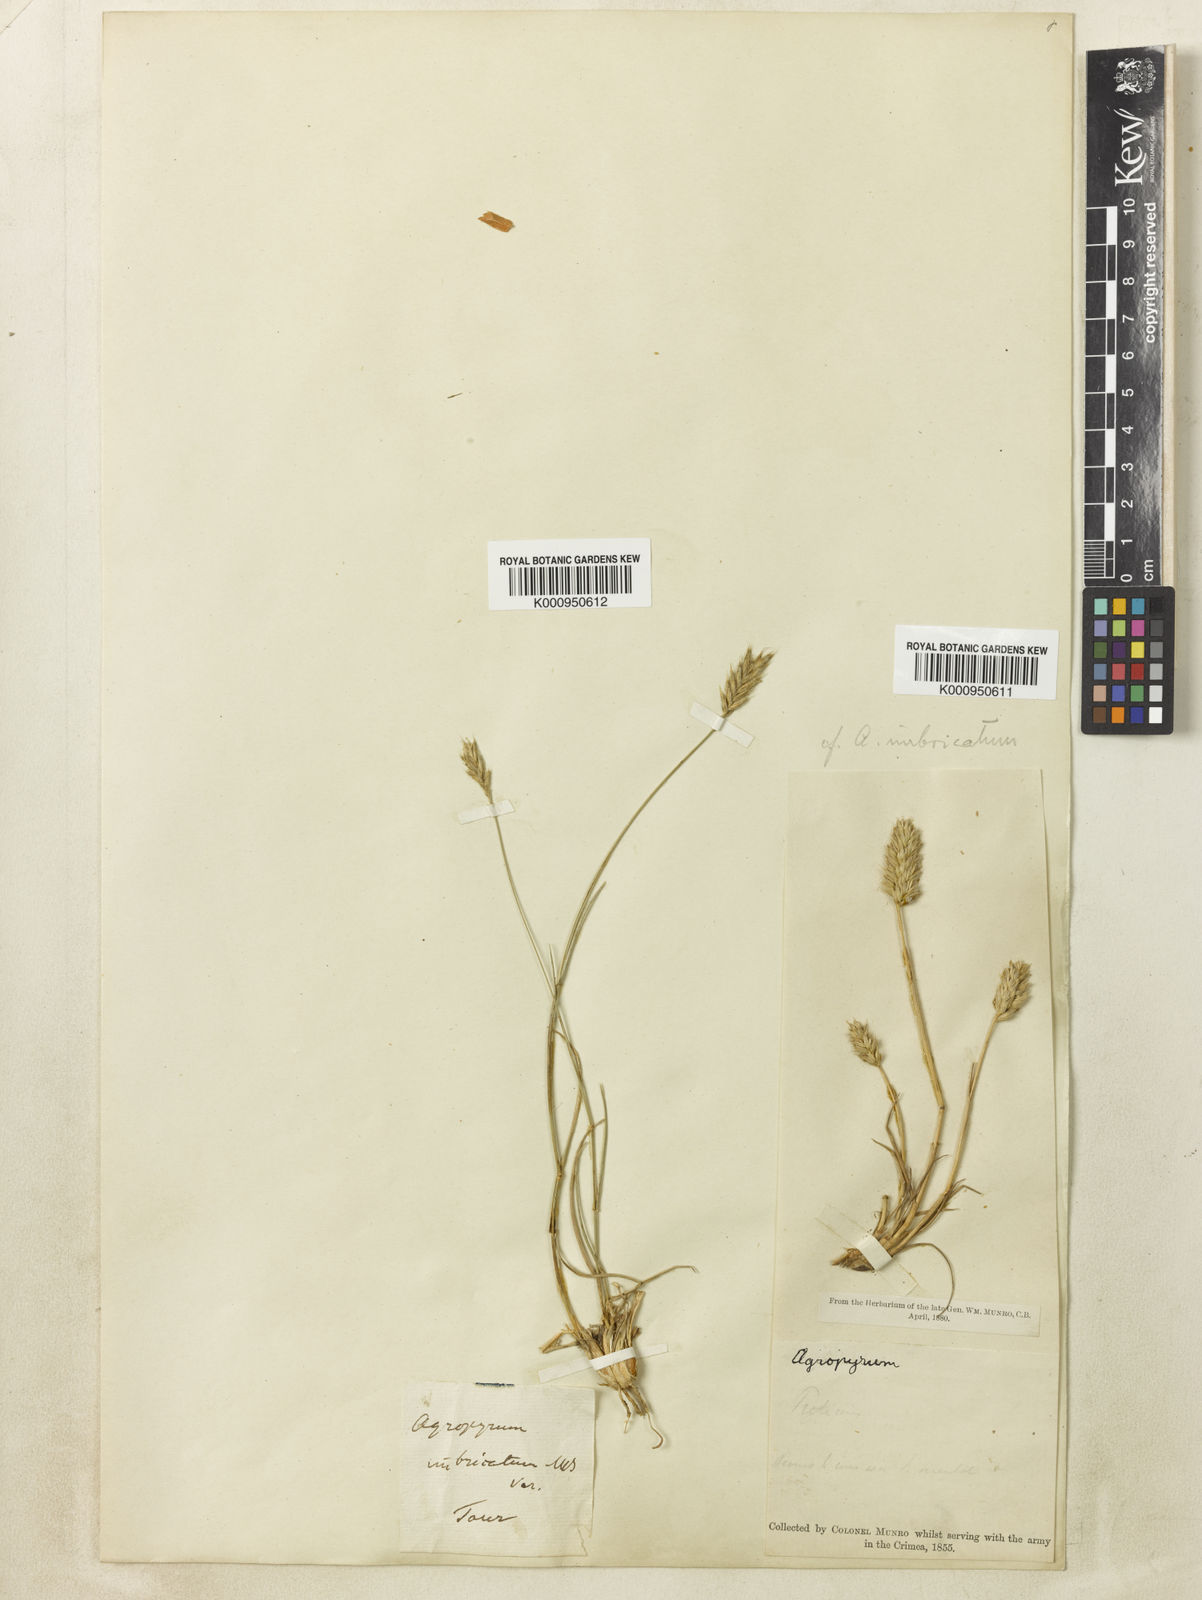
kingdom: Plantae
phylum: Tracheophyta
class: Liliopsida
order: Poales
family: Poaceae
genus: Agropyron
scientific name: Agropyron cristatum
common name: Crested wheatgrass
